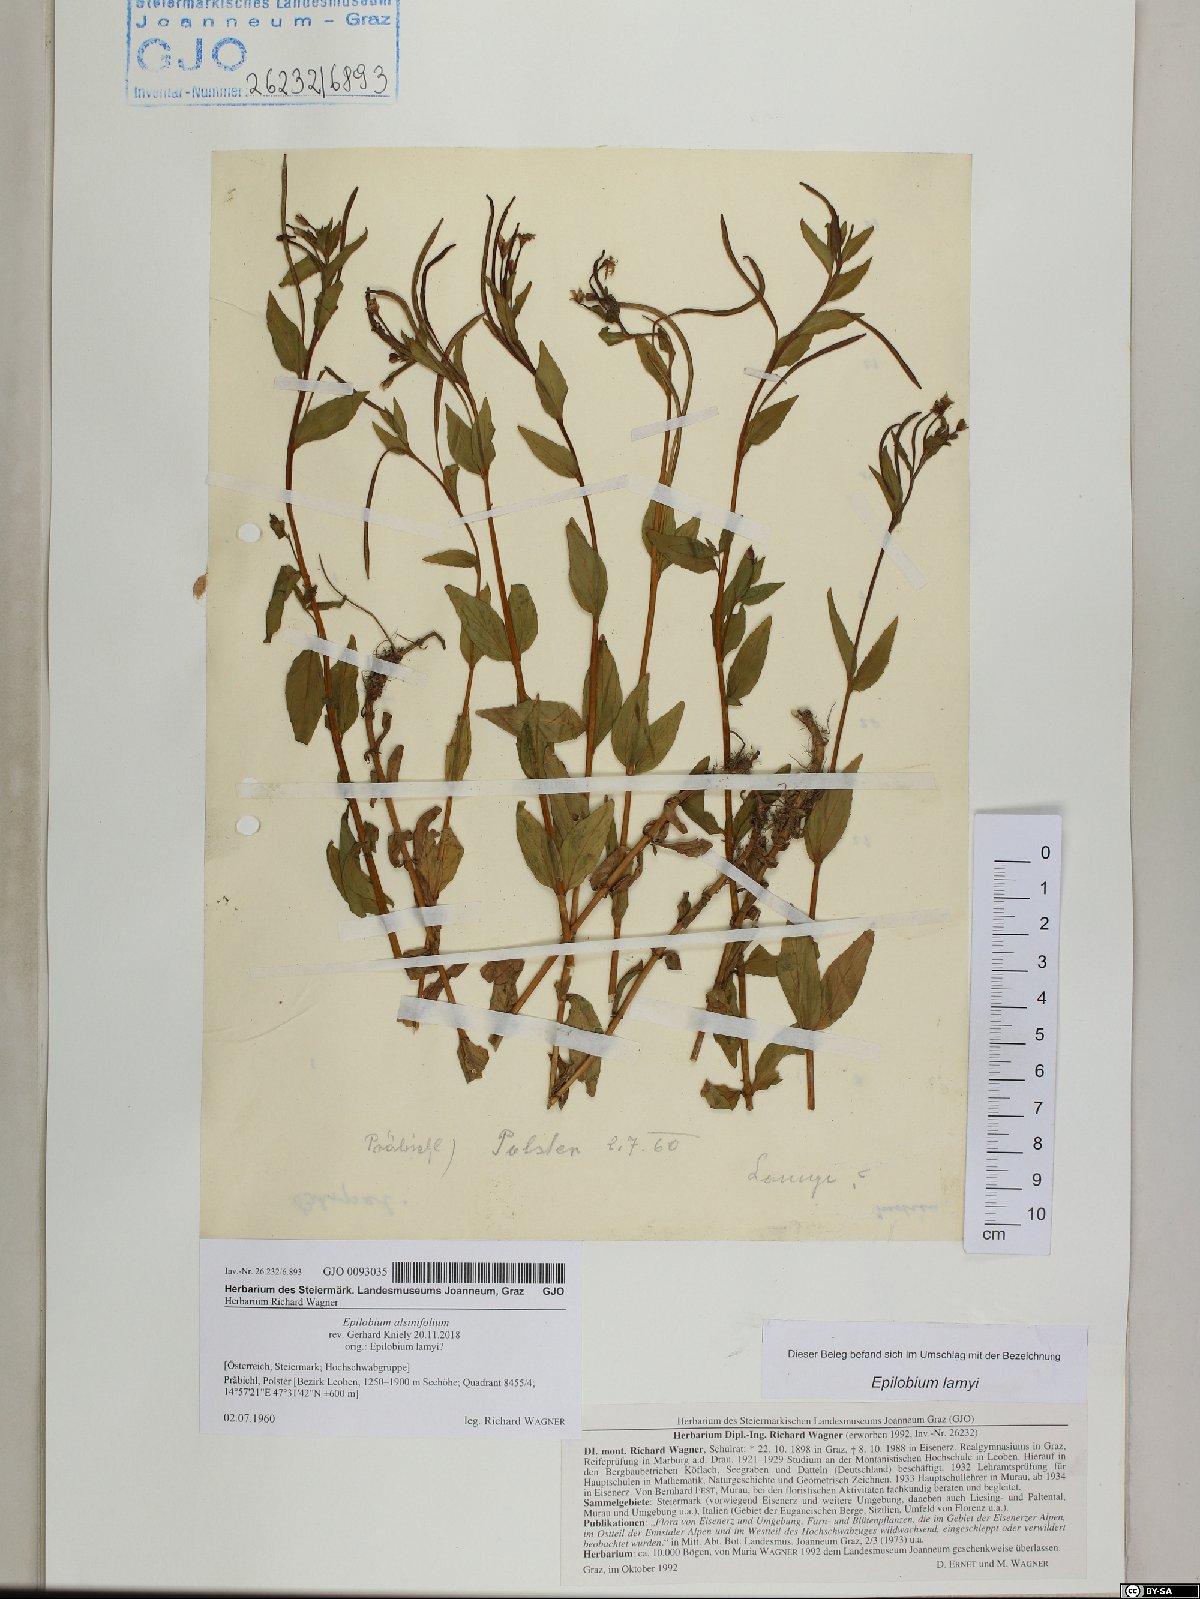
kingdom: Plantae
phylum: Tracheophyta
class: Magnoliopsida
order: Myrtales
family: Onagraceae
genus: Epilobium
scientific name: Epilobium alsinifolium
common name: Chickweed willowherb
